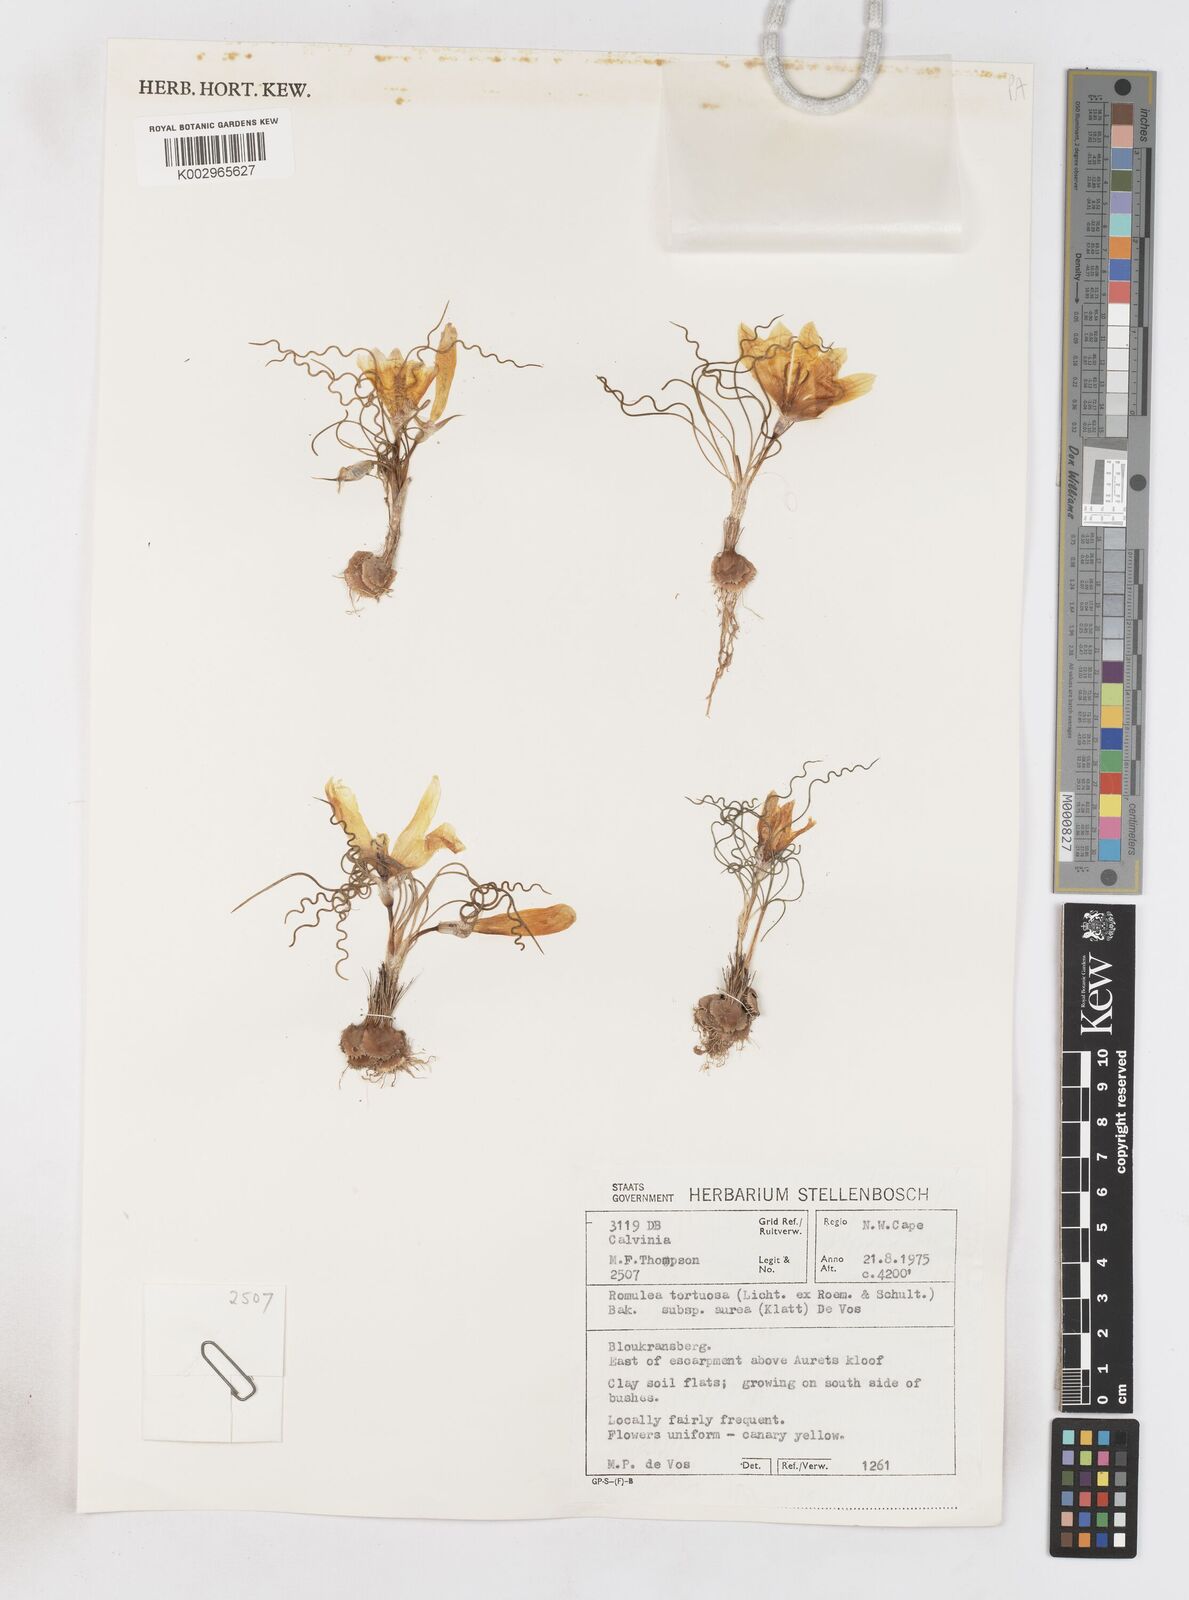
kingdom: Plantae
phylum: Tracheophyta
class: Liliopsida
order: Asparagales
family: Iridaceae
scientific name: Iridaceae
